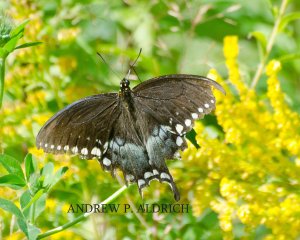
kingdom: Animalia
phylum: Arthropoda
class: Insecta
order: Lepidoptera
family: Papilionidae
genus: Pterourus
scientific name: Pterourus troilus
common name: Spicebush Swallowtail
